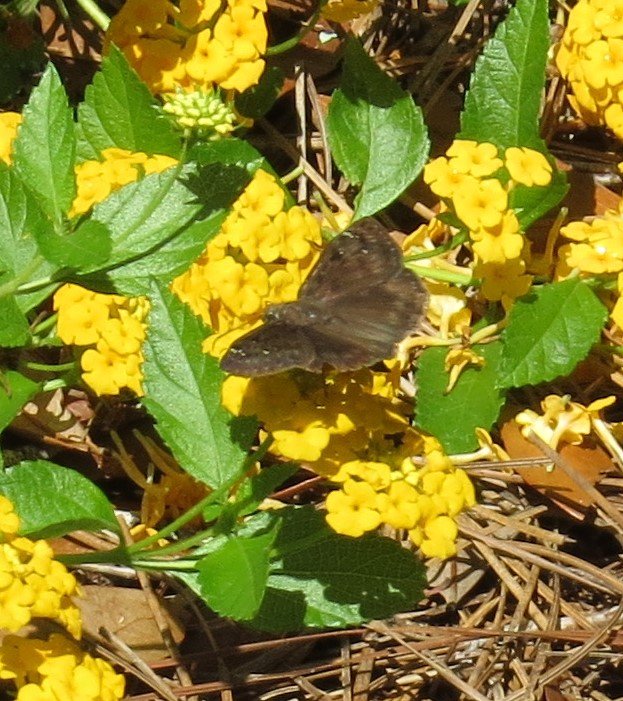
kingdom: Animalia
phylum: Arthropoda
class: Insecta
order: Lepidoptera
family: Hesperiidae
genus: Gesta
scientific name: Gesta
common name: Horace's Duskywing
